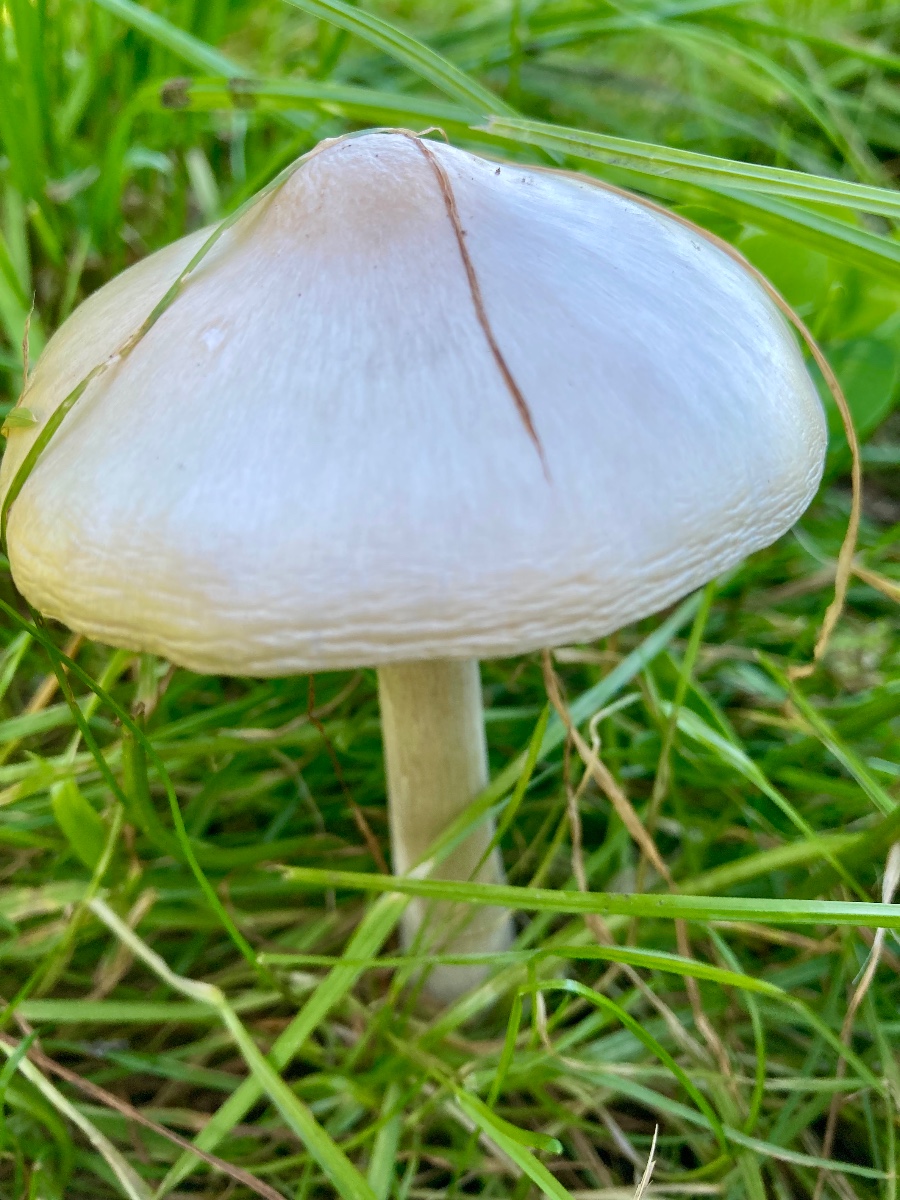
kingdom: Fungi
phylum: Basidiomycota
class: Agaricomycetes
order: Agaricales
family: Pluteaceae
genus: Volvopluteus
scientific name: Volvopluteus gloiocephalus
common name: høj posesvamp
